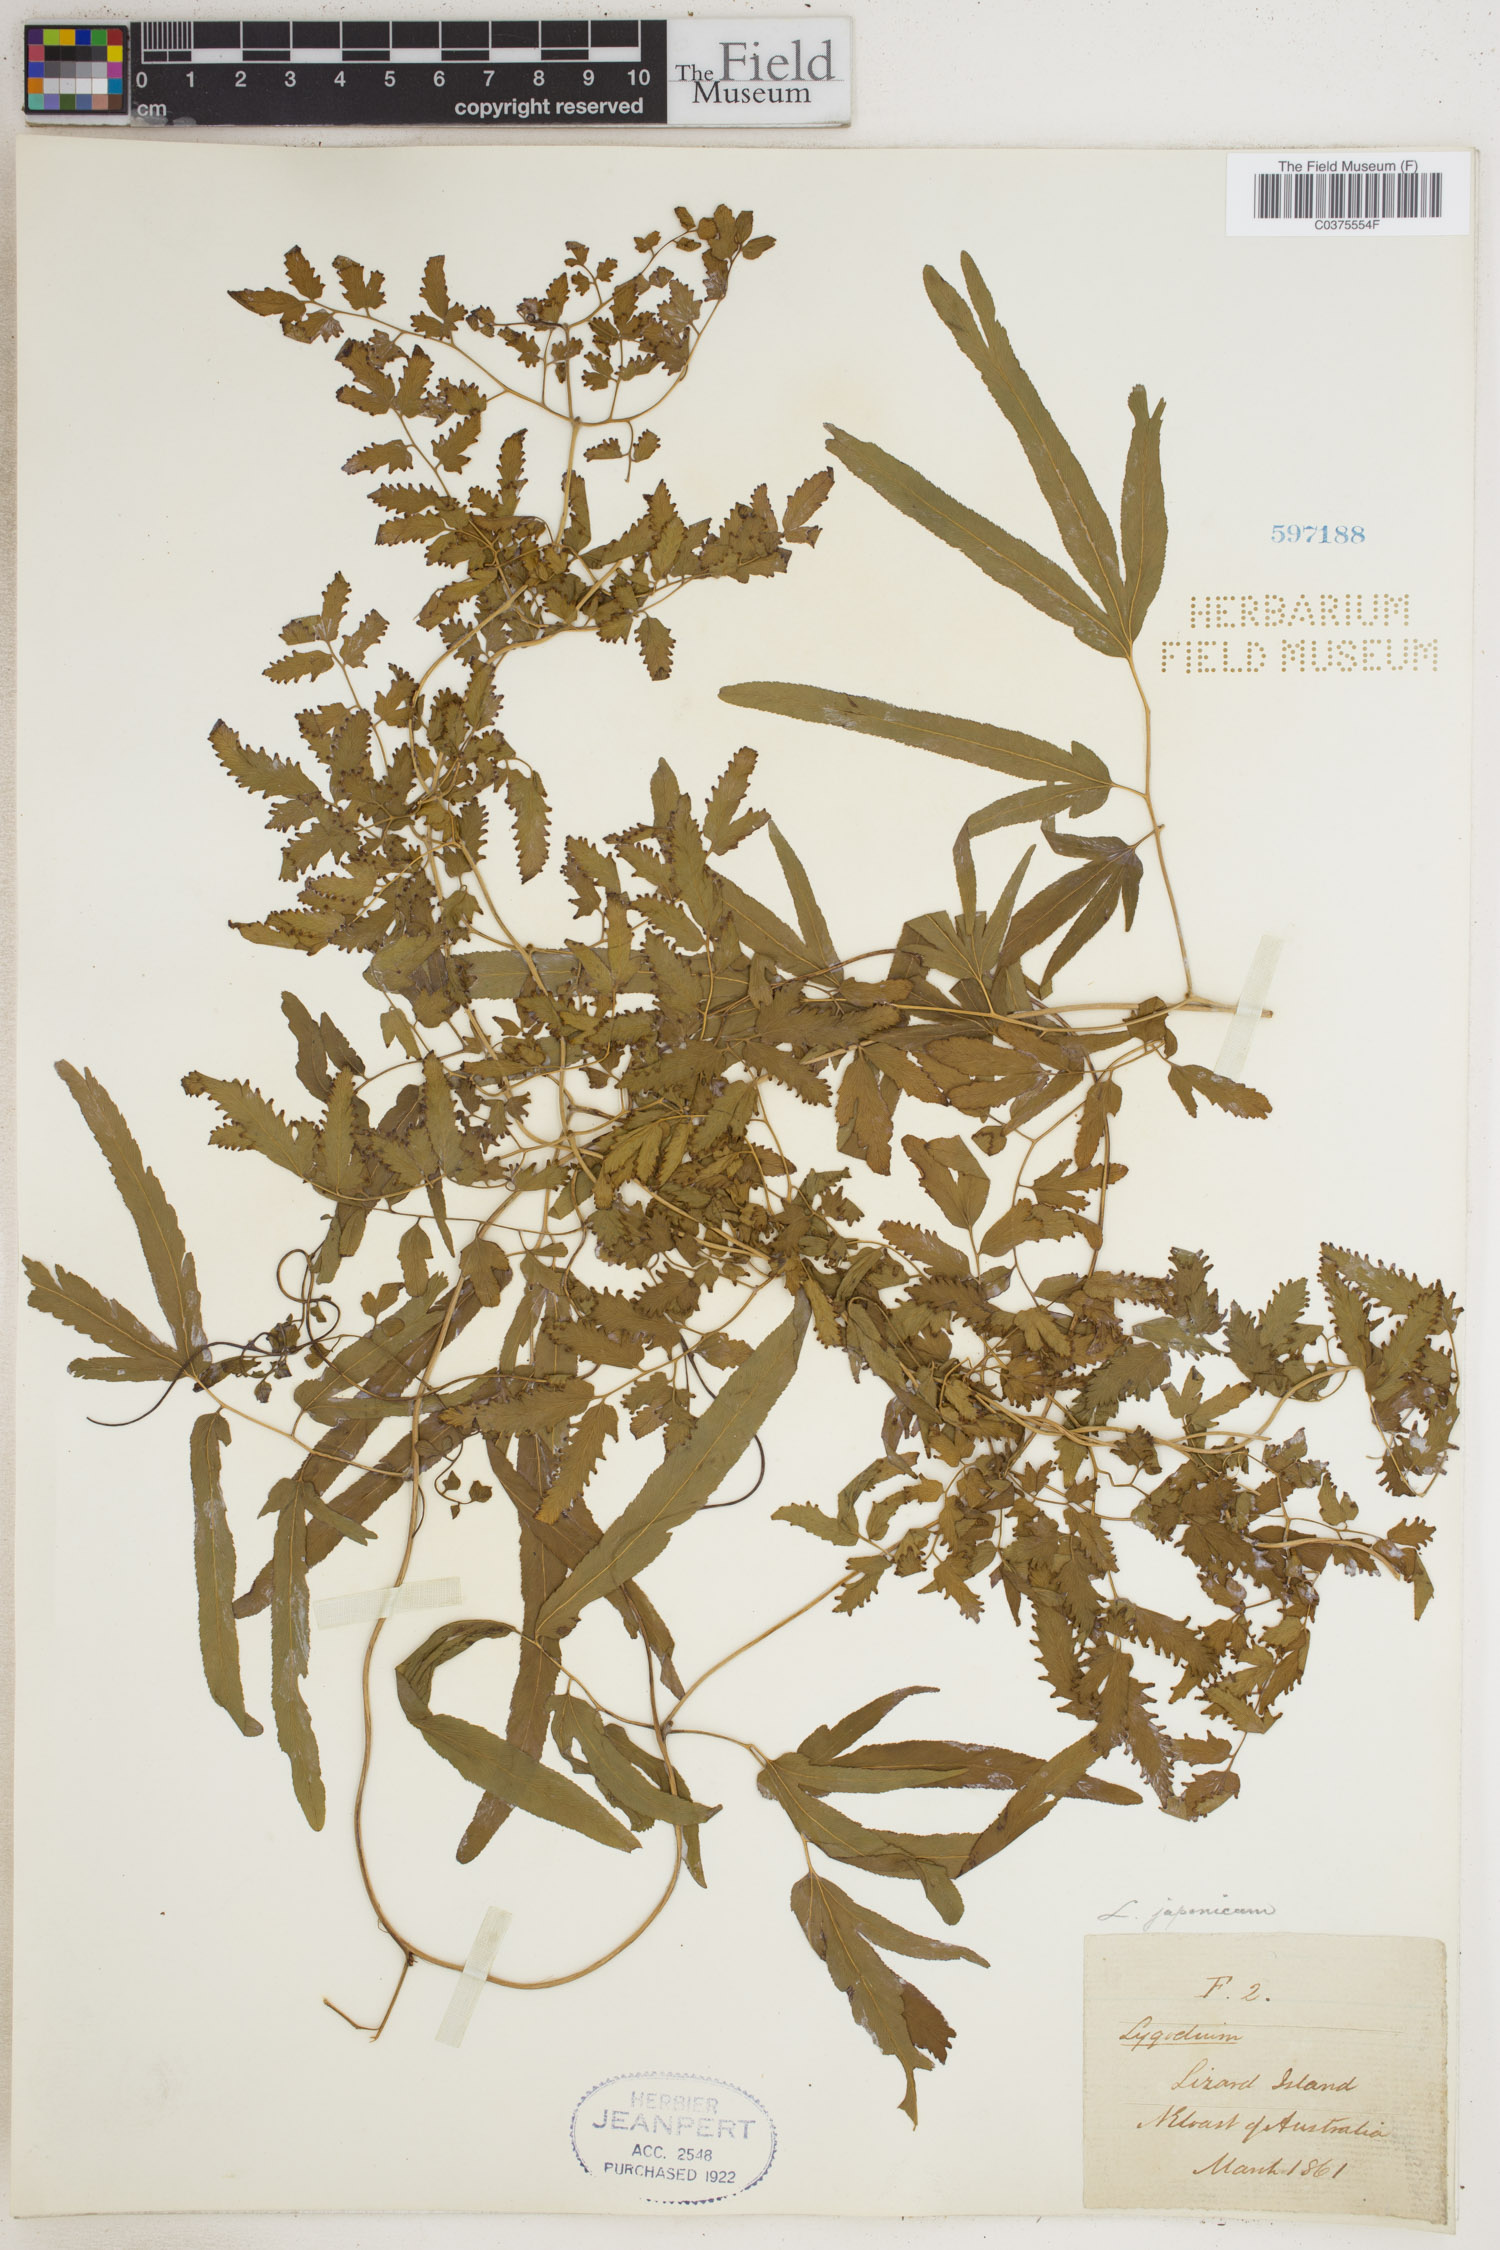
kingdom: Plantae
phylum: Tracheophyta
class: Polypodiopsida
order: Schizaeales
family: Lygodiaceae
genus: Lygodium
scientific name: Lygodium japonicum
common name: Japanese climbing fern
